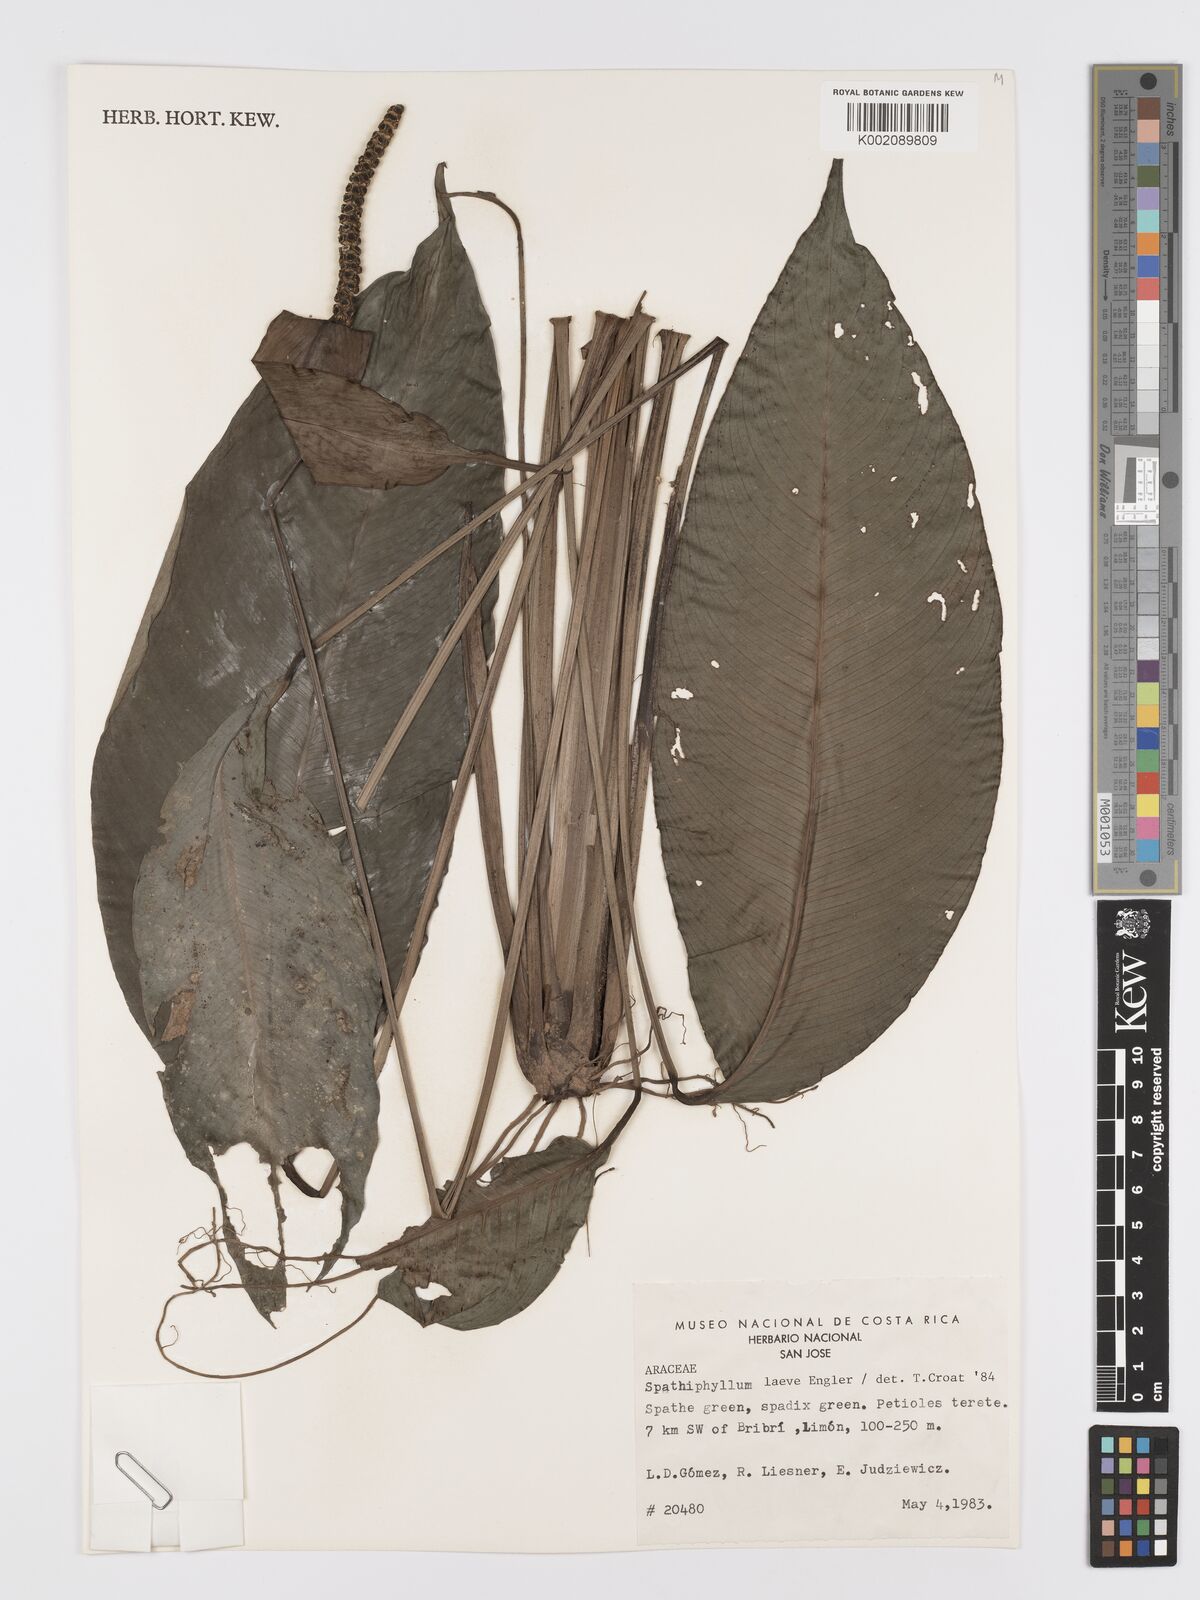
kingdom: Plantae
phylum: Tracheophyta
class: Liliopsida
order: Alismatales
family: Araceae
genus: Spathiphyllum
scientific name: Spathiphyllum laeve
